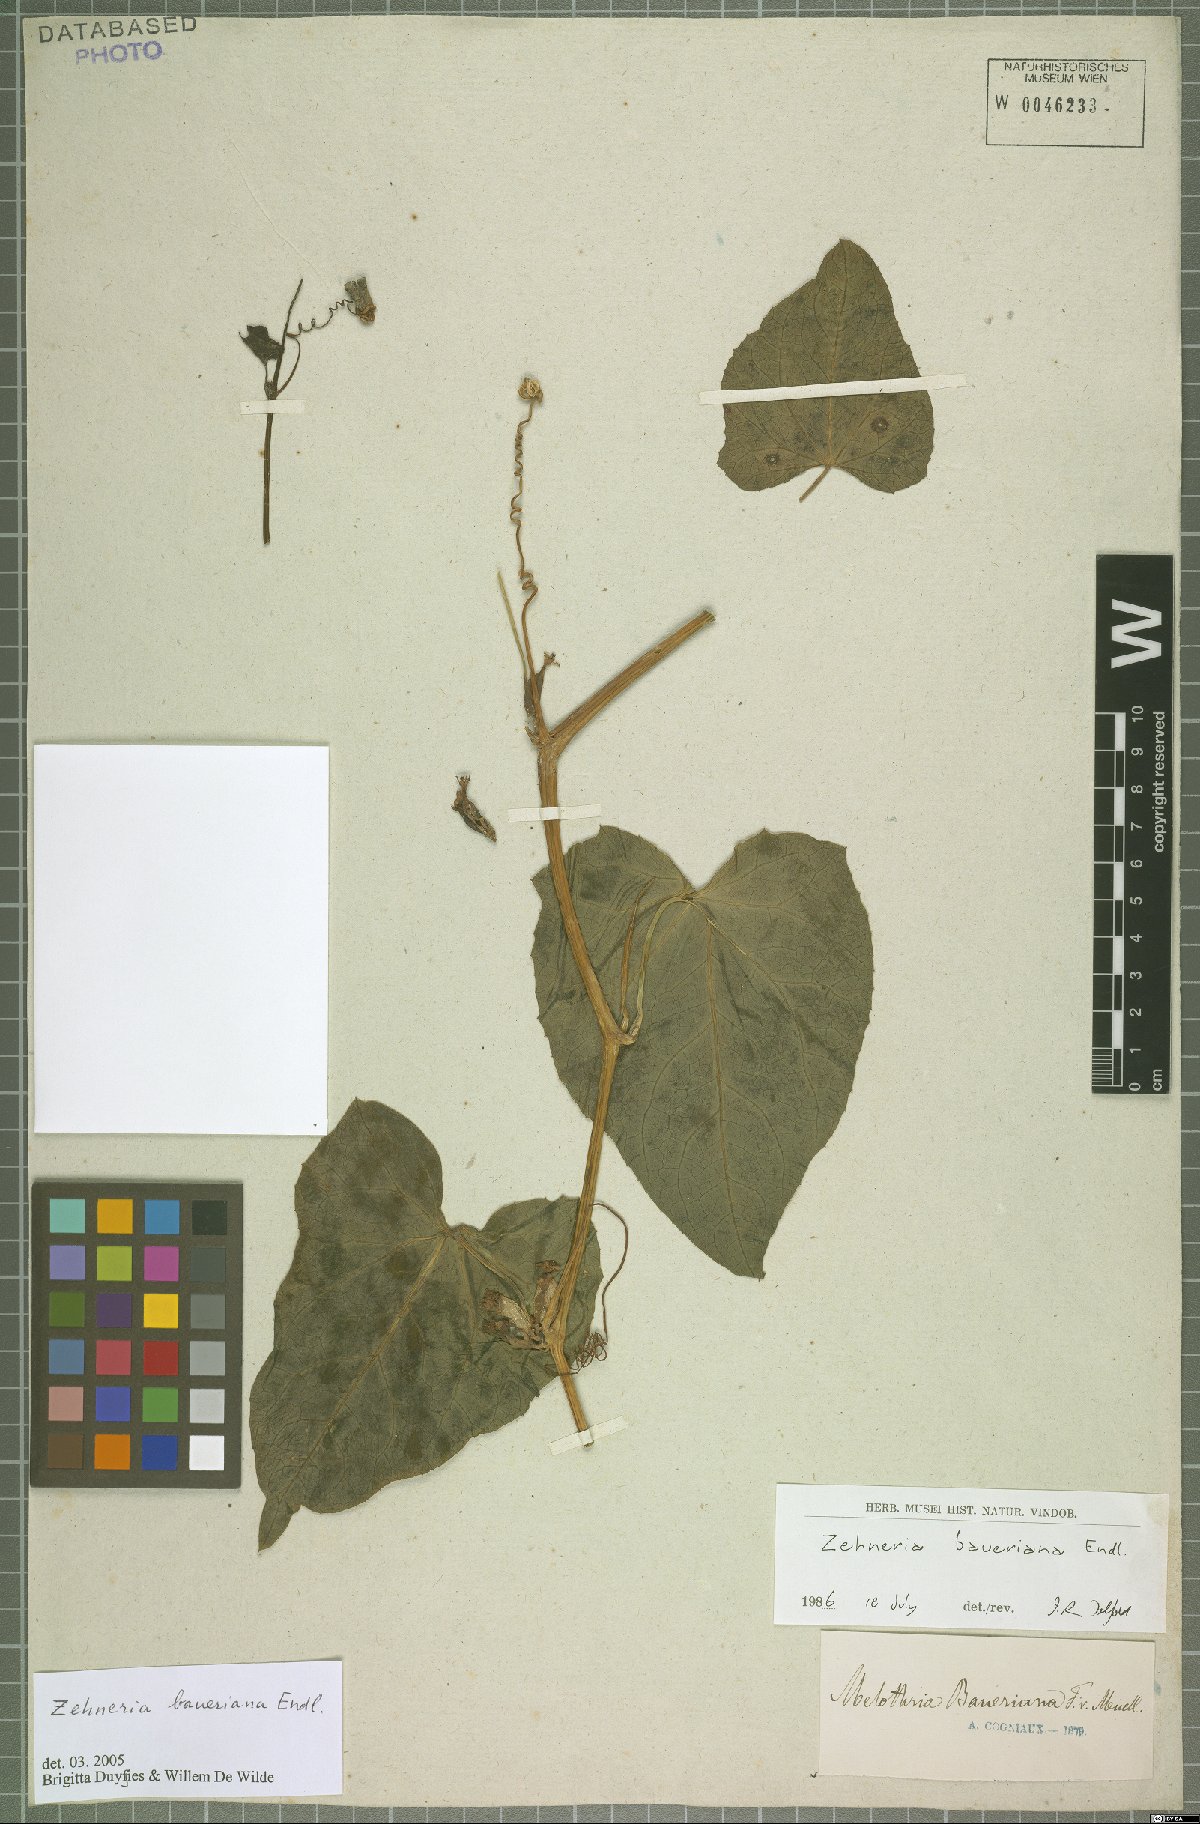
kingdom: Plantae
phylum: Tracheophyta
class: Magnoliopsida
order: Cucurbitales
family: Cucurbitaceae
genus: Zehneria
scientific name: Zehneria mucronata
